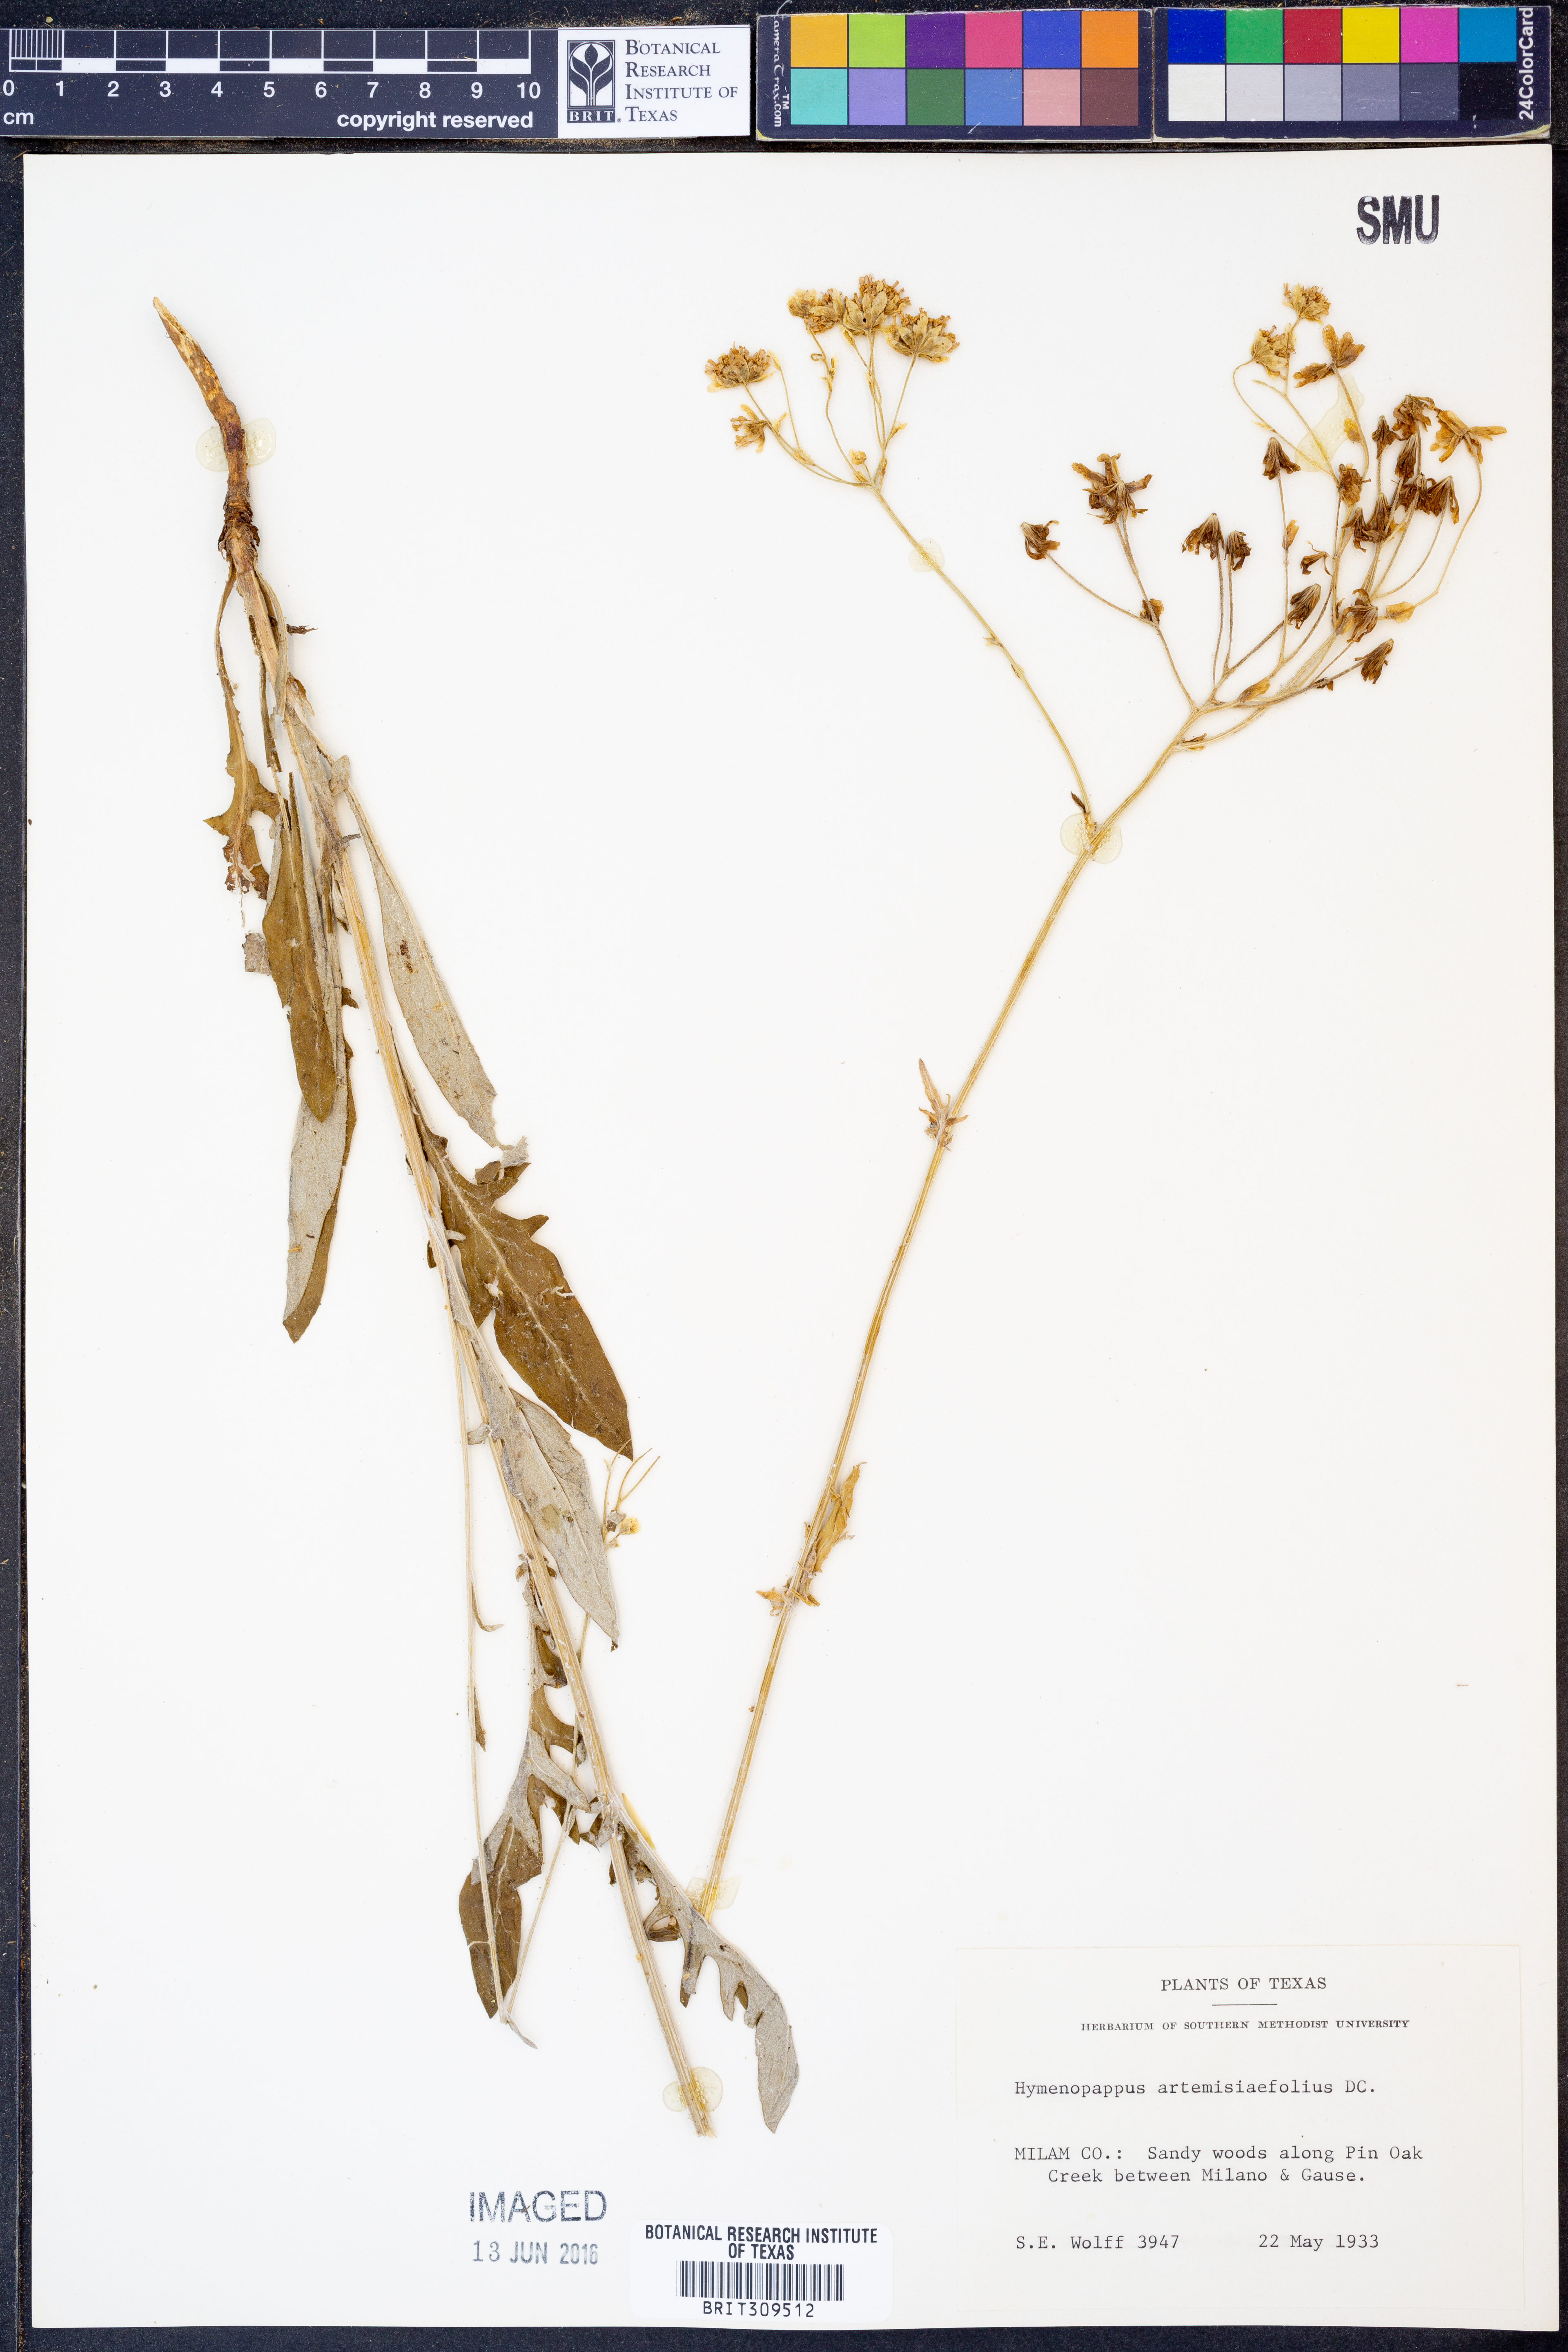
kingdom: Plantae
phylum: Tracheophyta
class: Magnoliopsida
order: Asterales
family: Asteraceae
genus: Hymenopappus
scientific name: Hymenopappus artemisiifolius
